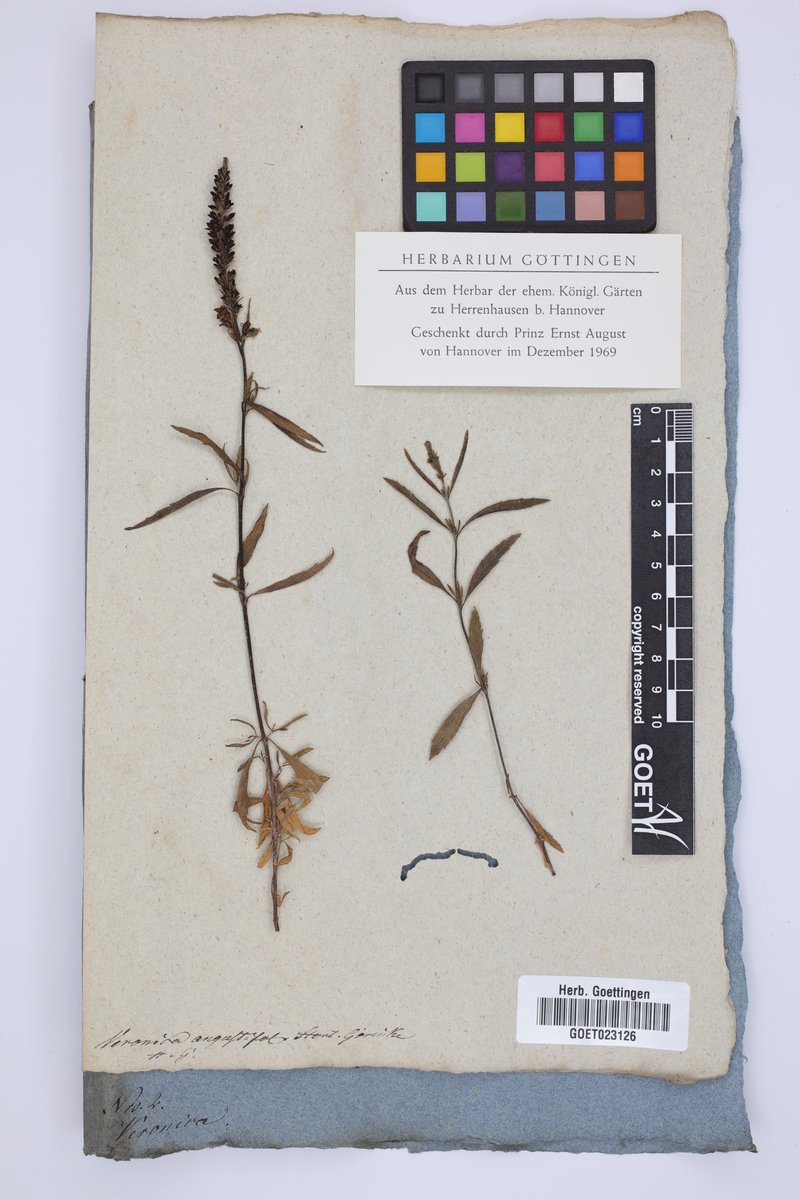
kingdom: Plantae
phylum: Tracheophyta
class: Magnoliopsida
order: Lamiales
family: Plantaginaceae
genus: Veronica
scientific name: Veronica linariifolia
